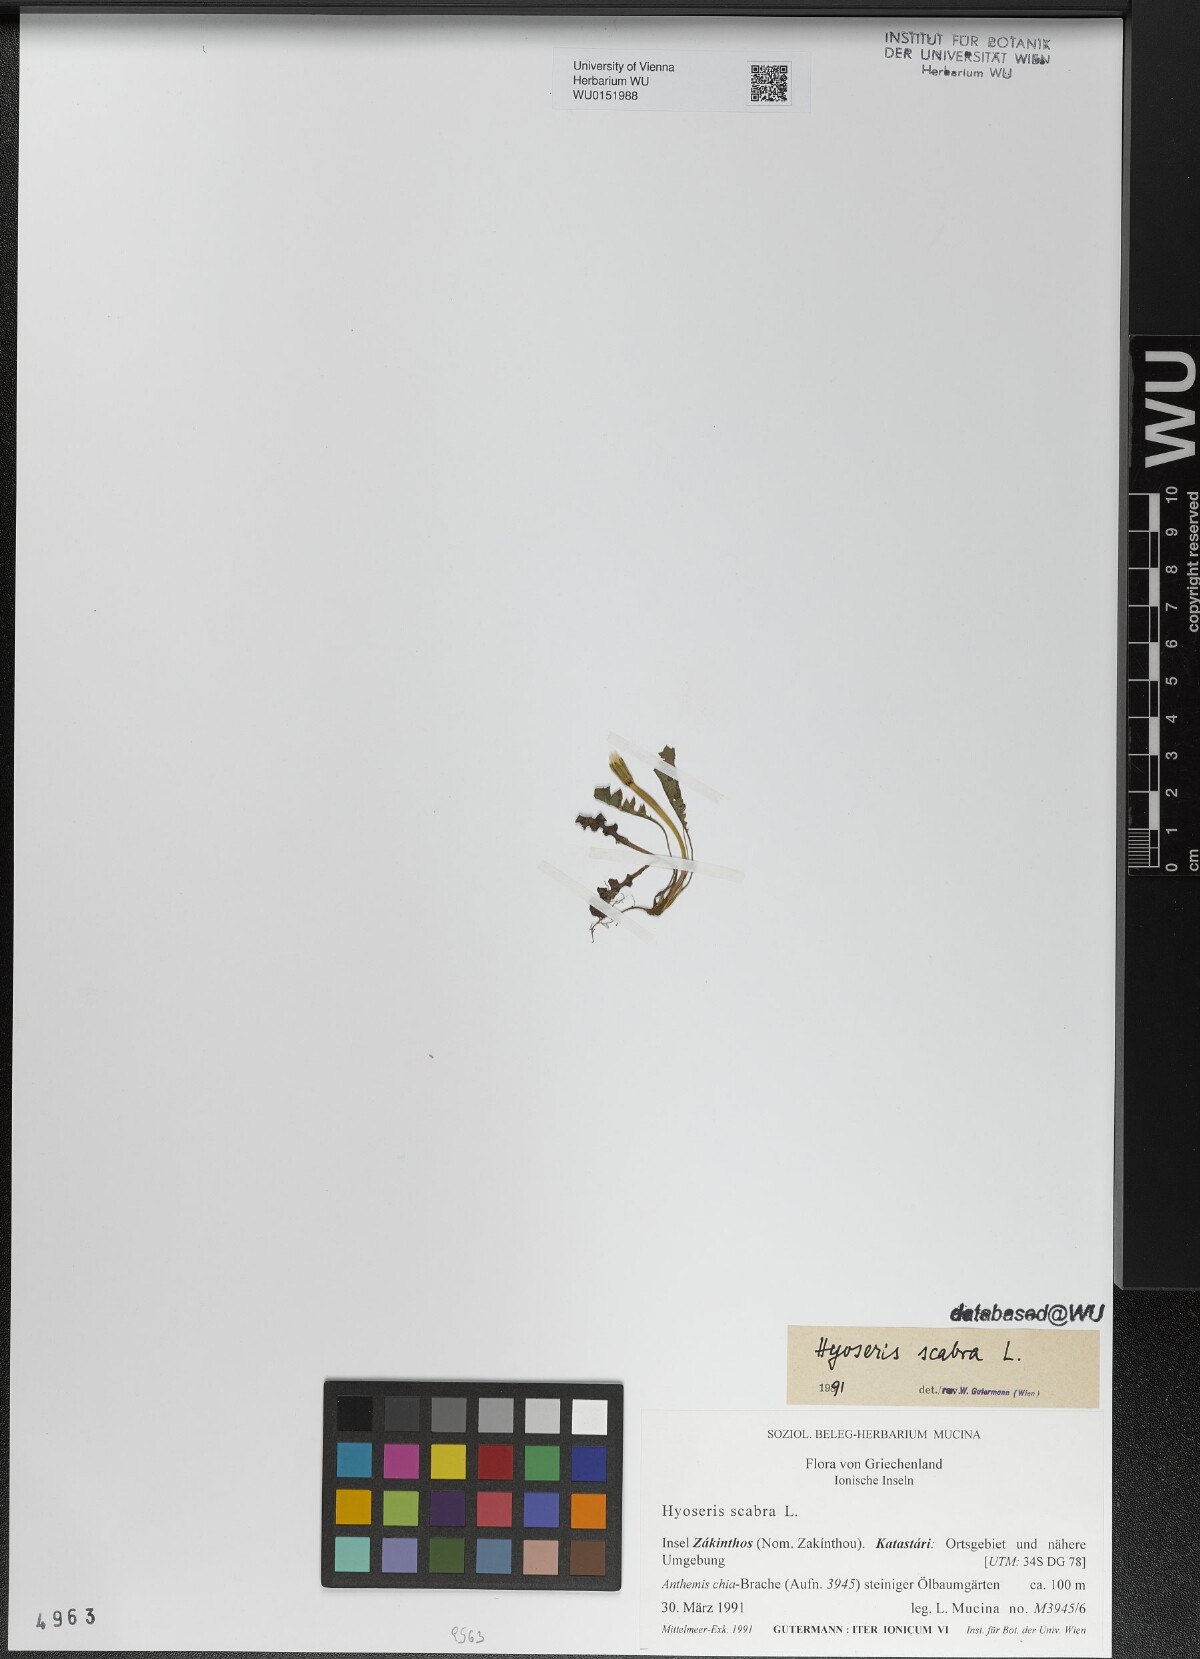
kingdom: Plantae
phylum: Tracheophyta
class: Magnoliopsida
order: Asterales
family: Asteraceae
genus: Hyoseris
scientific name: Hyoseris scabra
